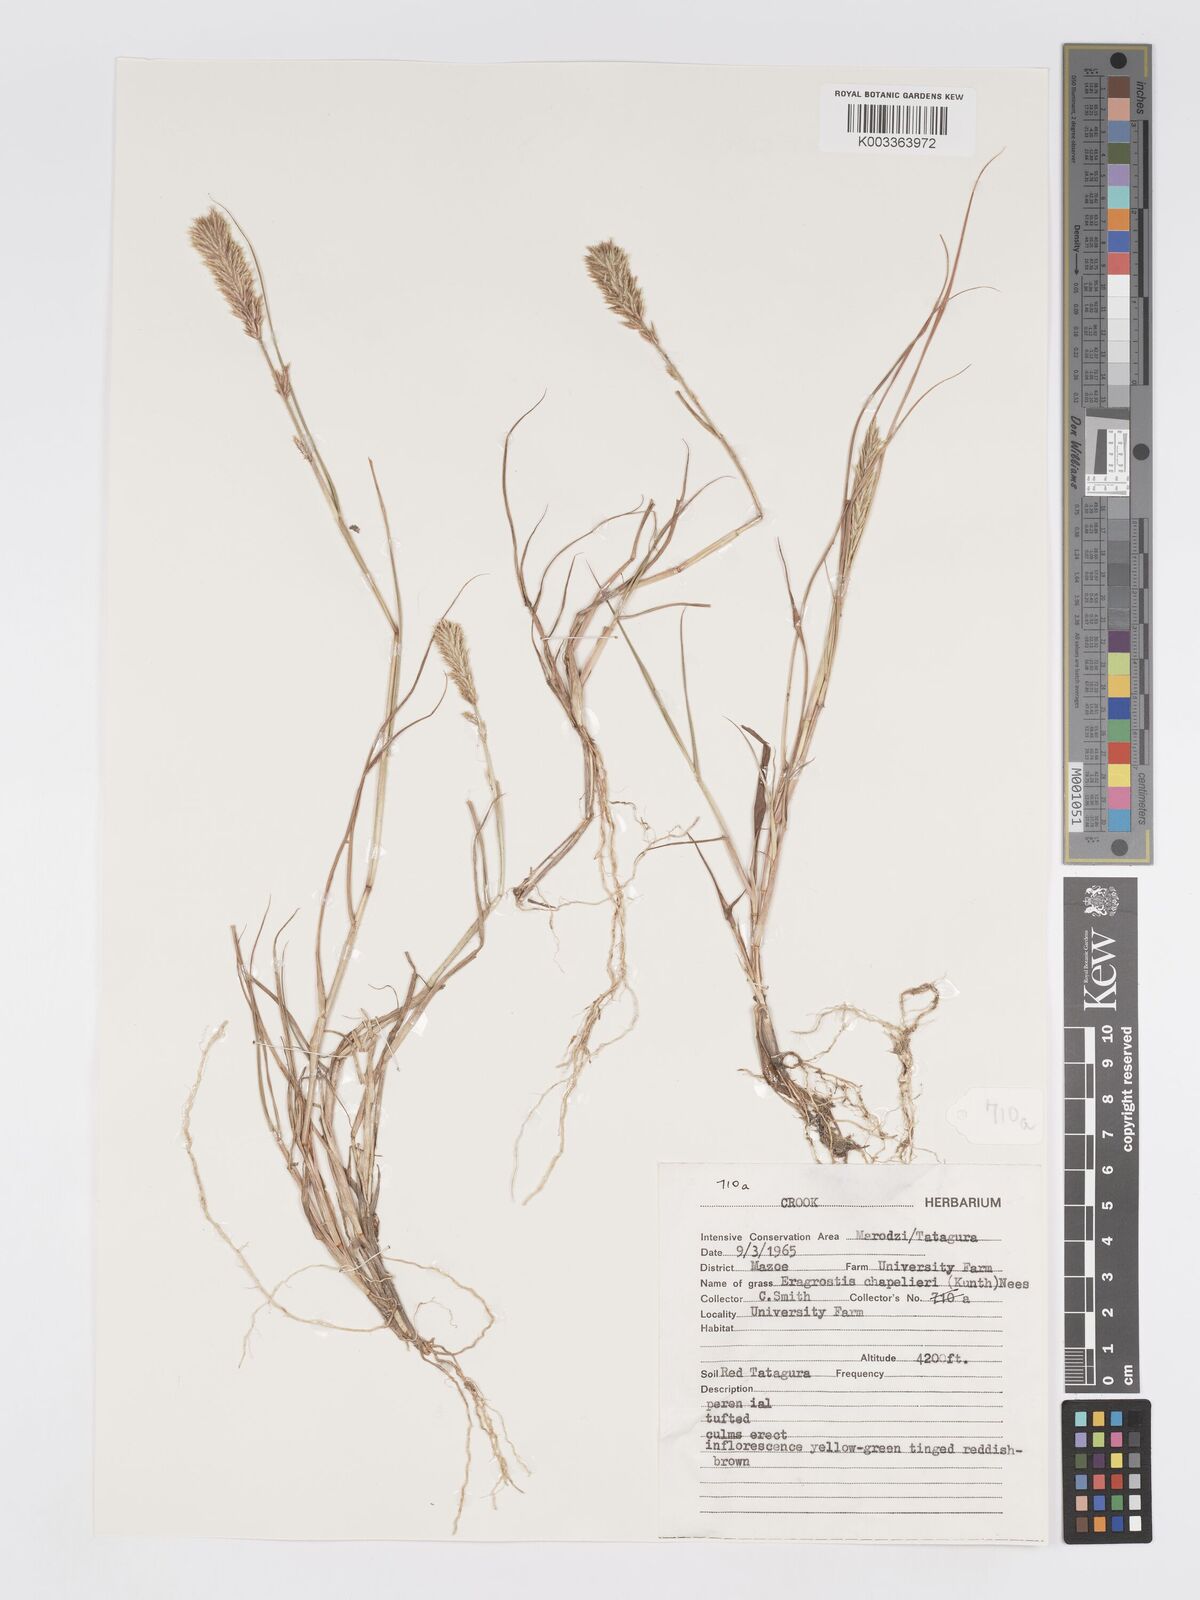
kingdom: Plantae
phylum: Tracheophyta
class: Liliopsida
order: Poales
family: Poaceae
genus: Eragrostis
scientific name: Eragrostis patens
